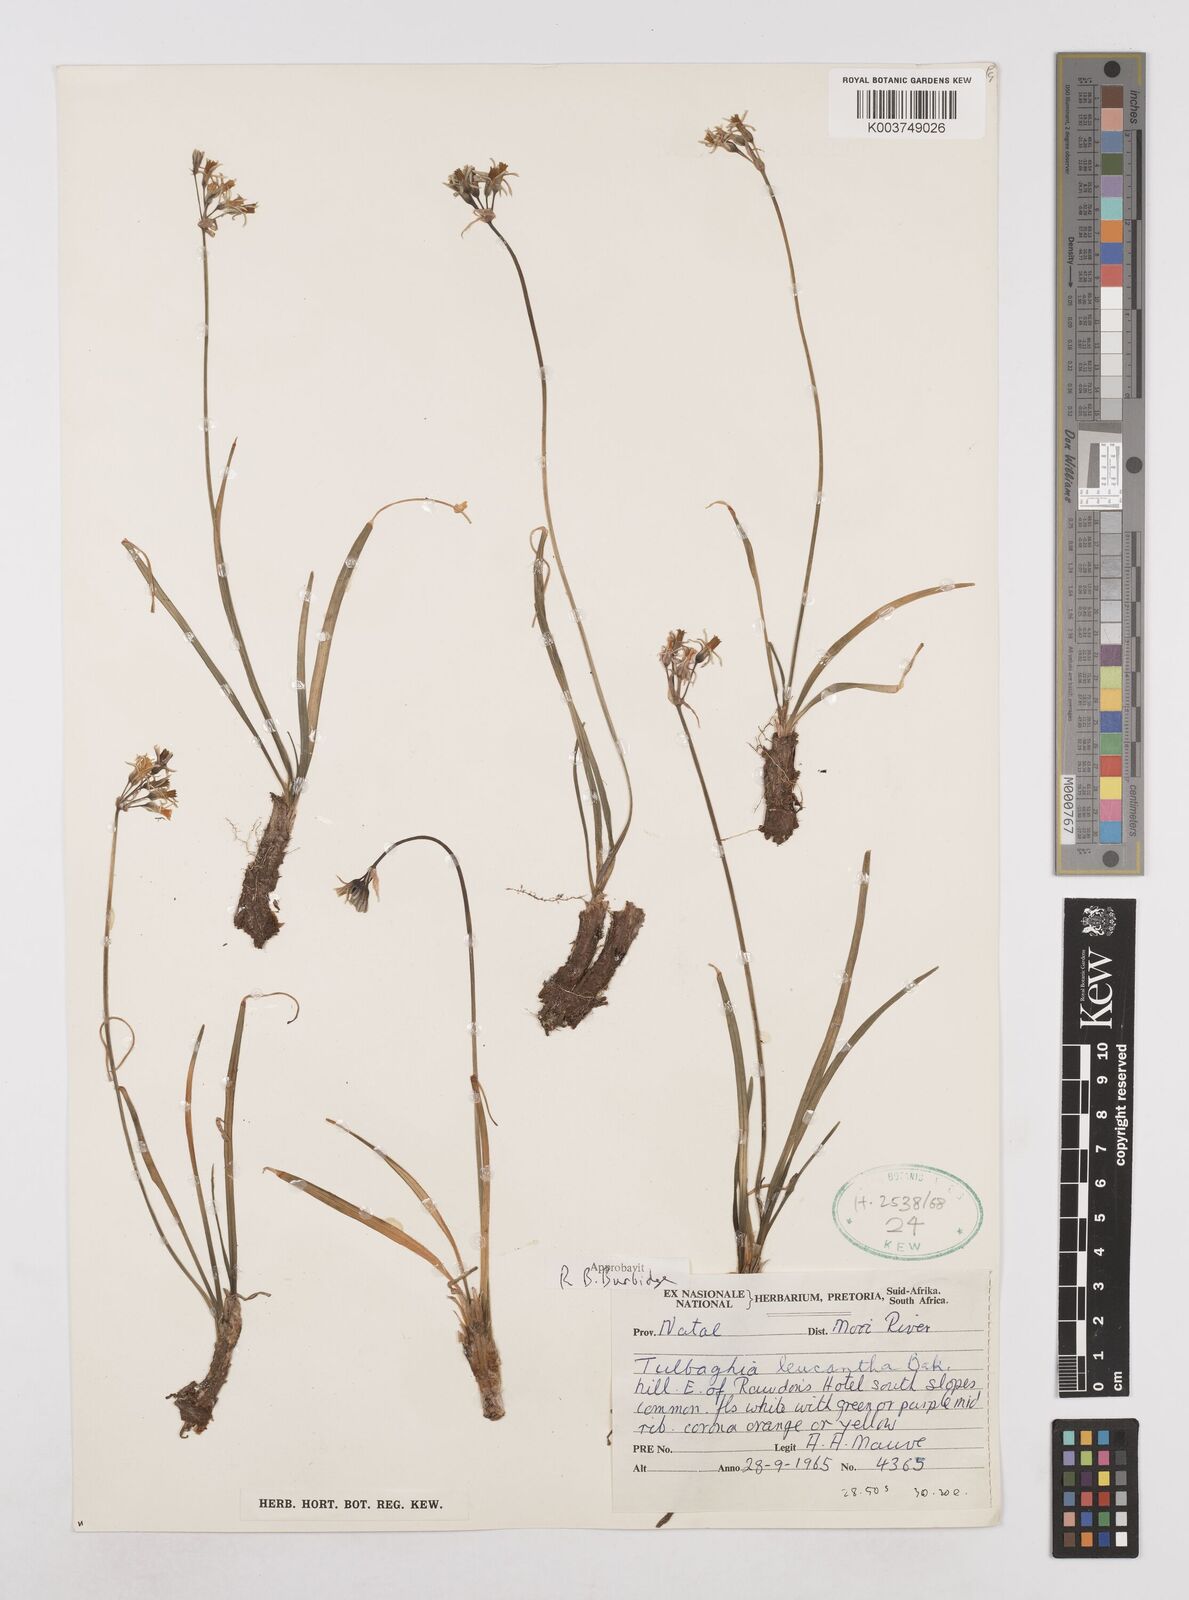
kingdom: Plantae
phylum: Tracheophyta
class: Liliopsida
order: Asparagales
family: Amaryllidaceae
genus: Tulbaghia
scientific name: Tulbaghia leucantha
